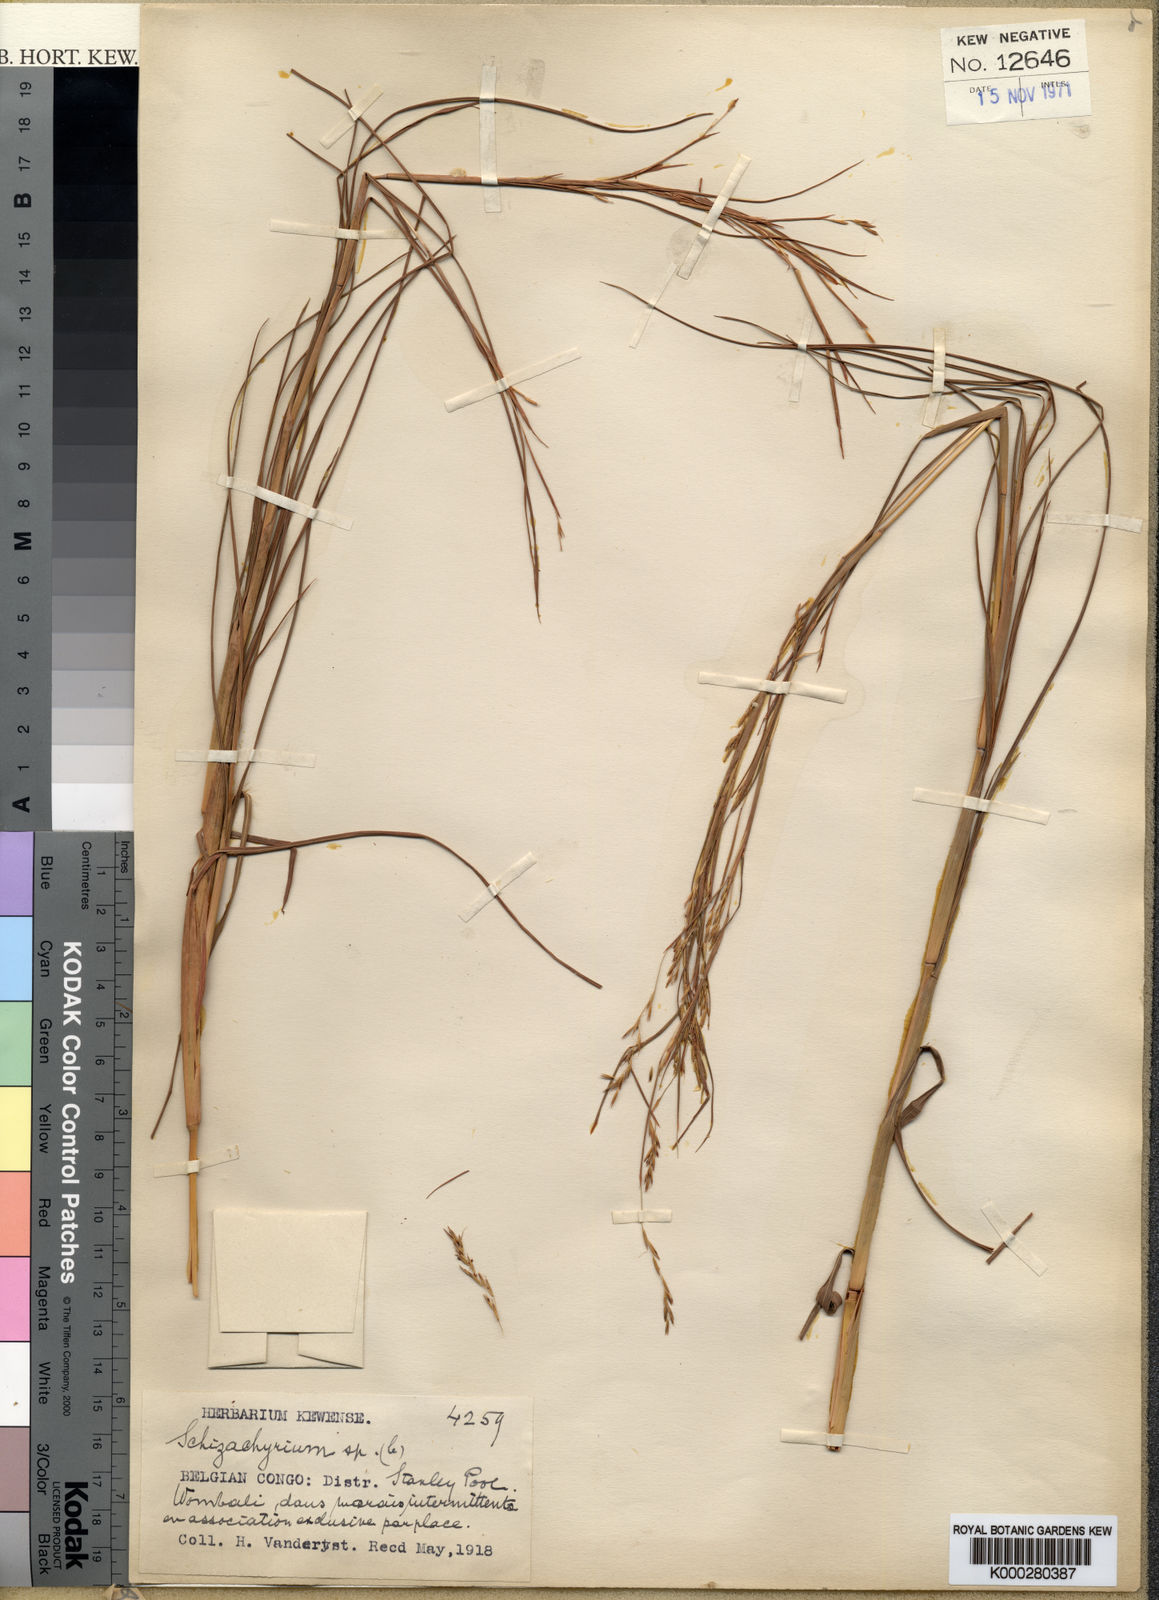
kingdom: Plantae
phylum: Tracheophyta
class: Liliopsida
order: Poales
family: Poaceae
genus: Schizachyrium
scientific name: Schizachyrium kwiluense
